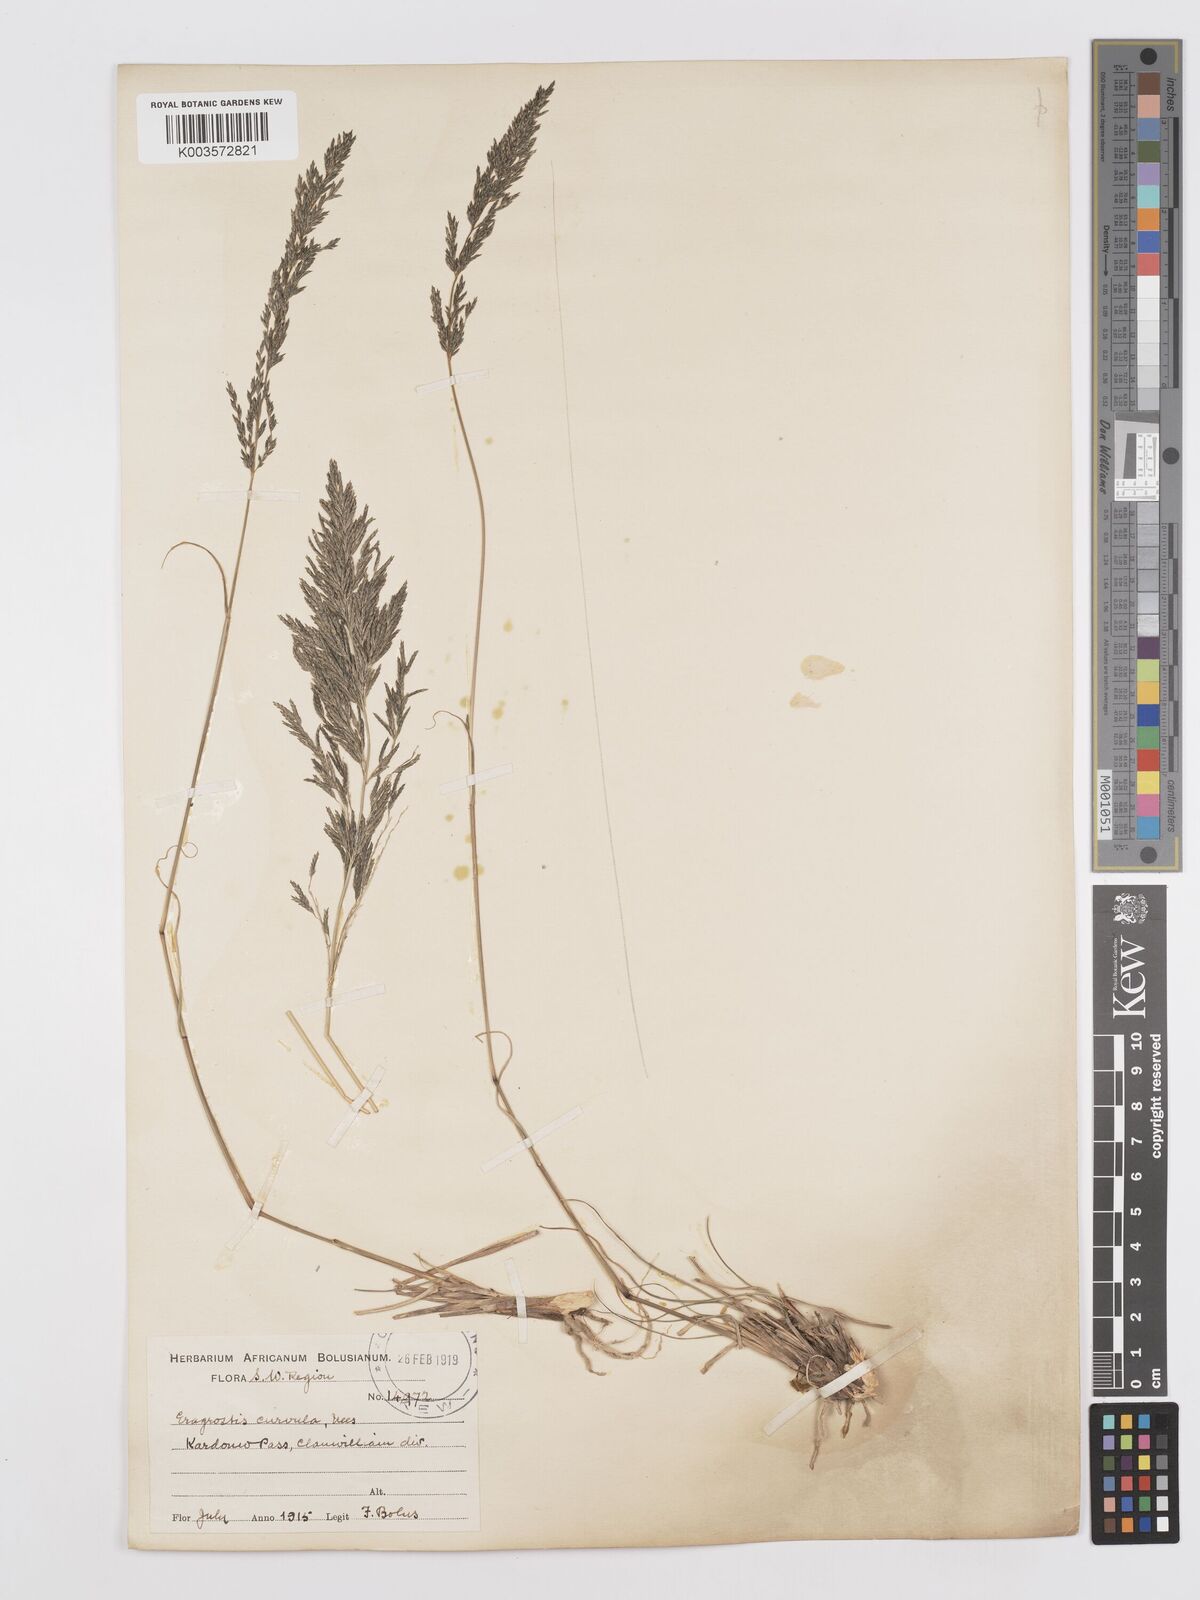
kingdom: Plantae
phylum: Tracheophyta
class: Liliopsida
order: Poales
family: Poaceae
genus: Eragrostis
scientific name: Eragrostis curvula
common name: African love-grass
